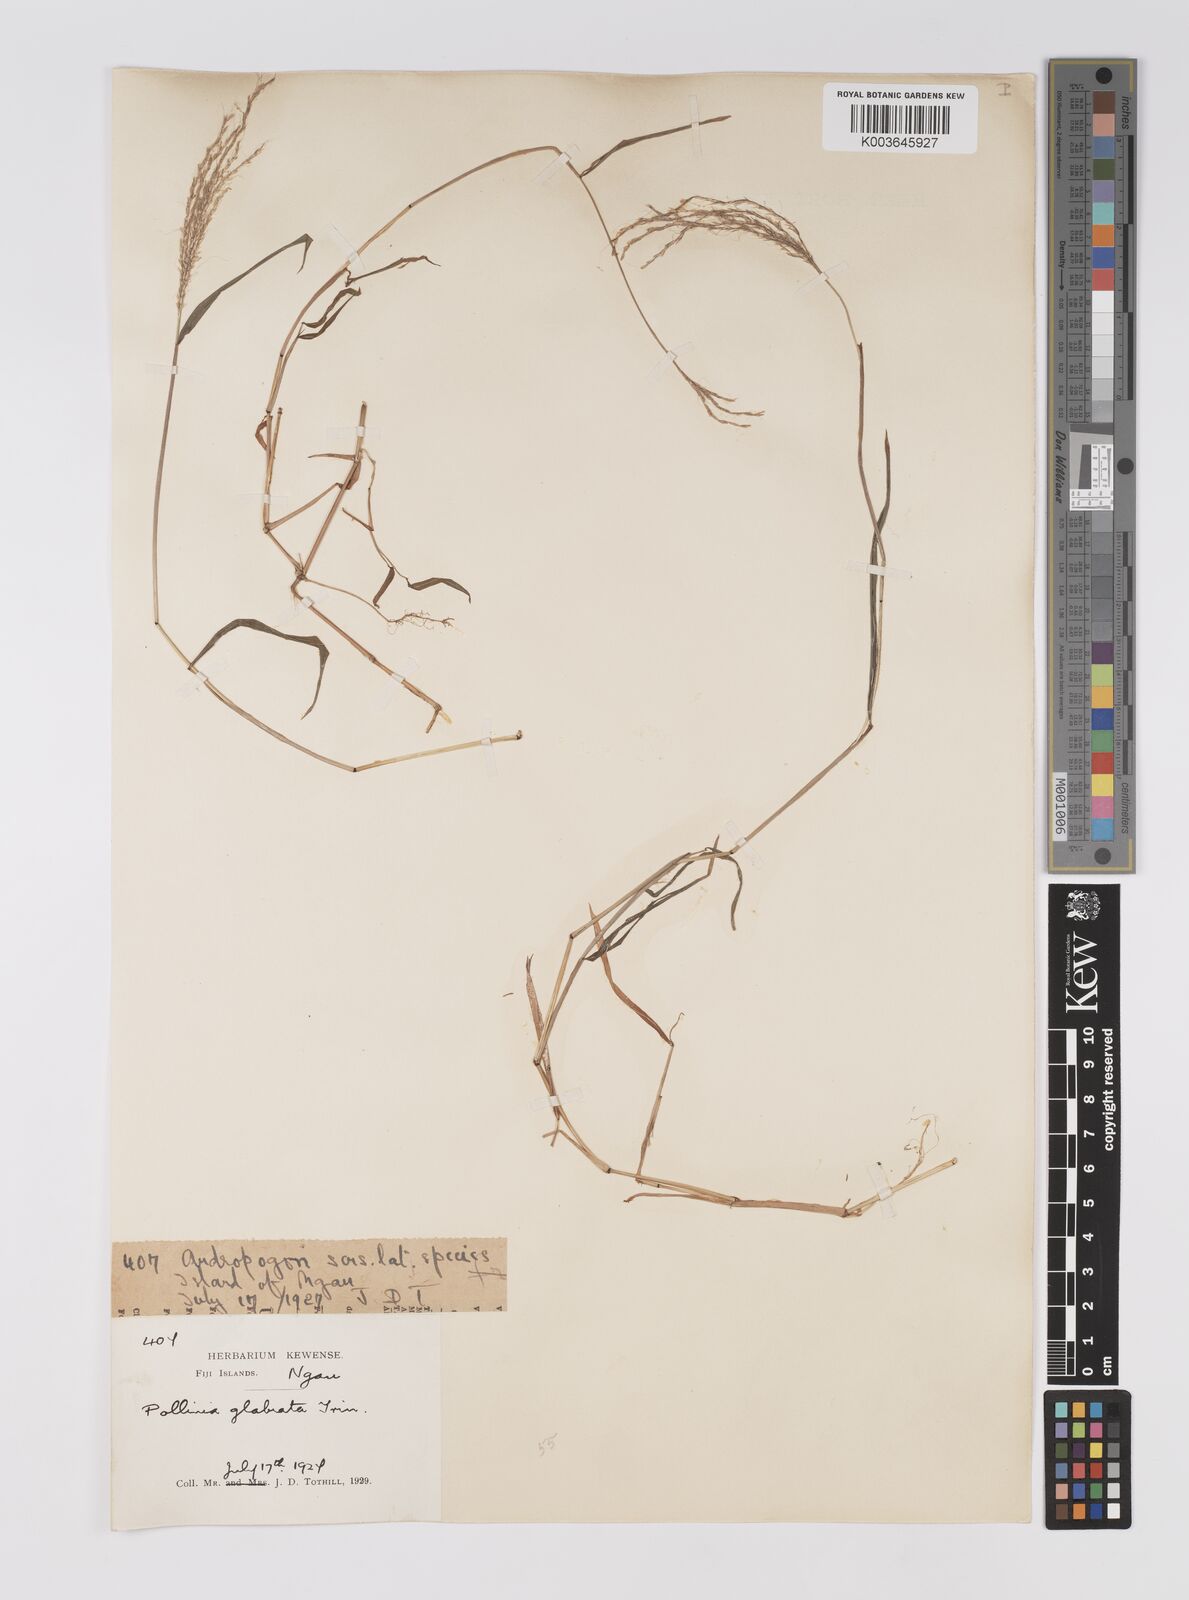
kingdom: Plantae
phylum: Tracheophyta
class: Liliopsida
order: Poales
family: Poaceae
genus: Microstegium
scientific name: Microstegium glabratum
